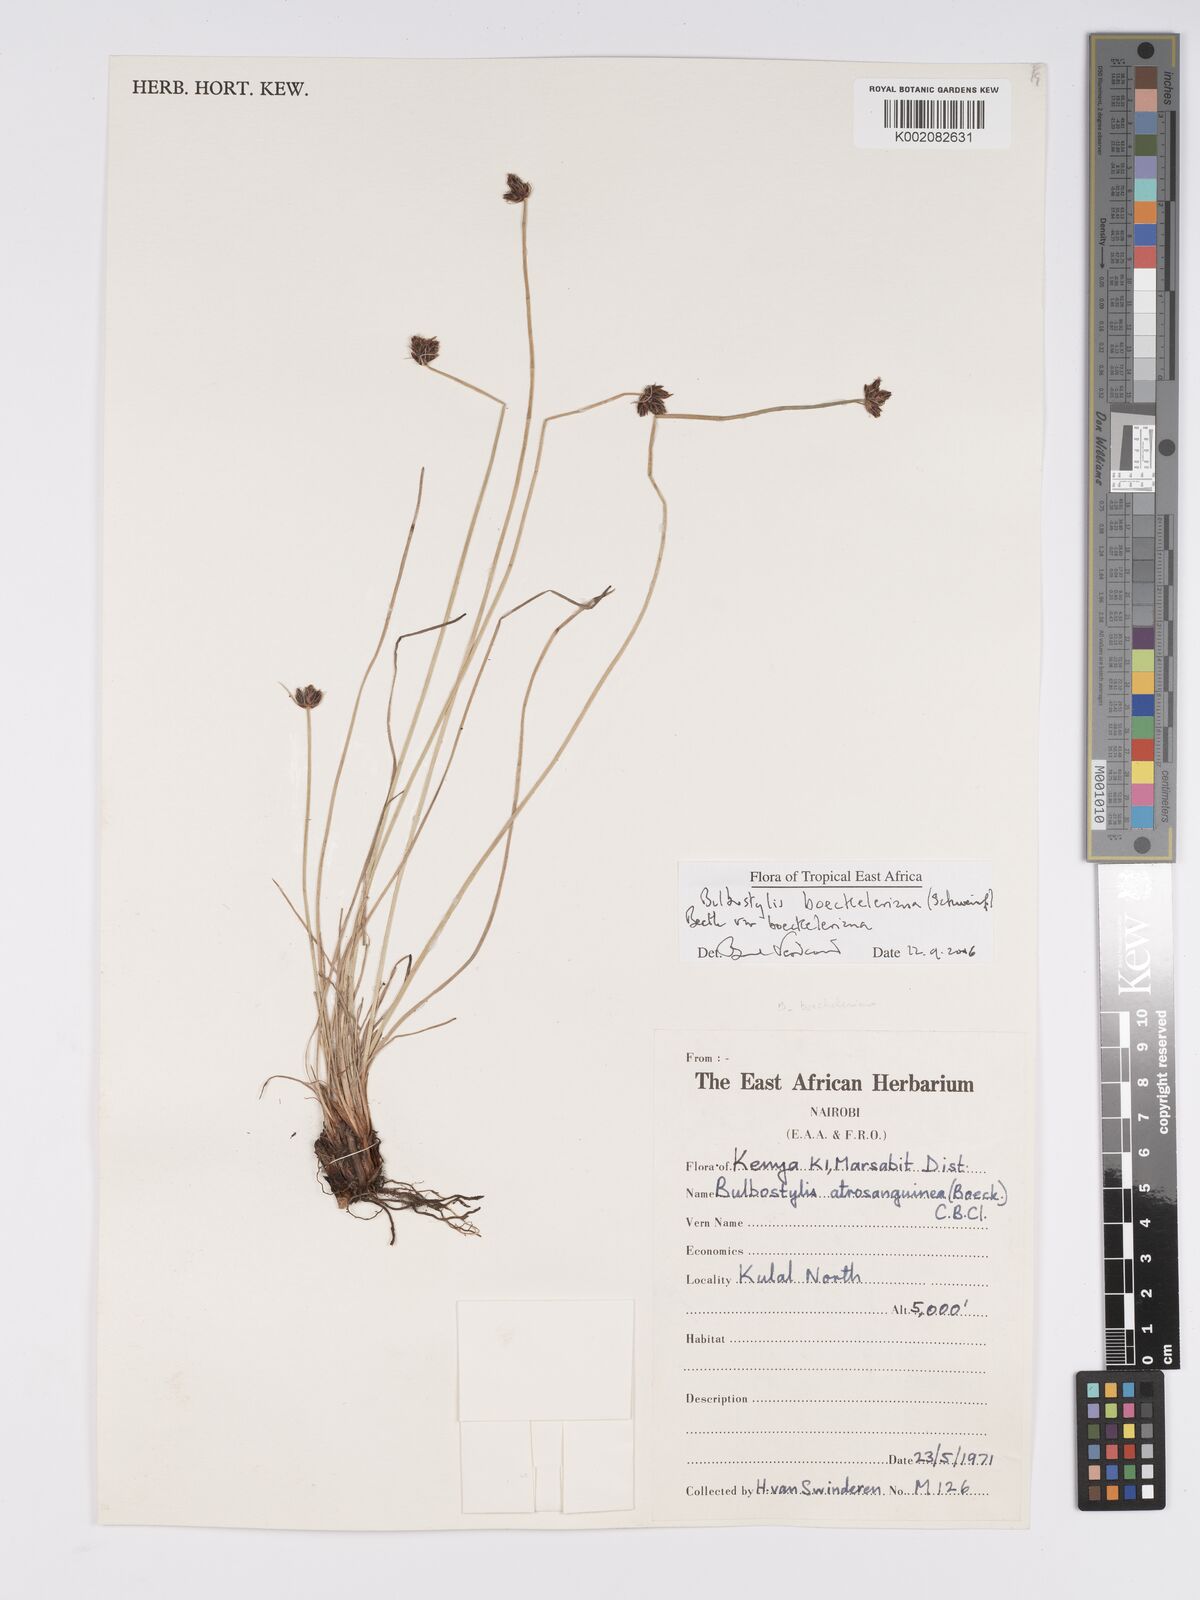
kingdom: Plantae
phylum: Tracheophyta
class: Liliopsida
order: Poales
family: Cyperaceae
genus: Bulbostylis
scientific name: Bulbostylis boeckeleriana
